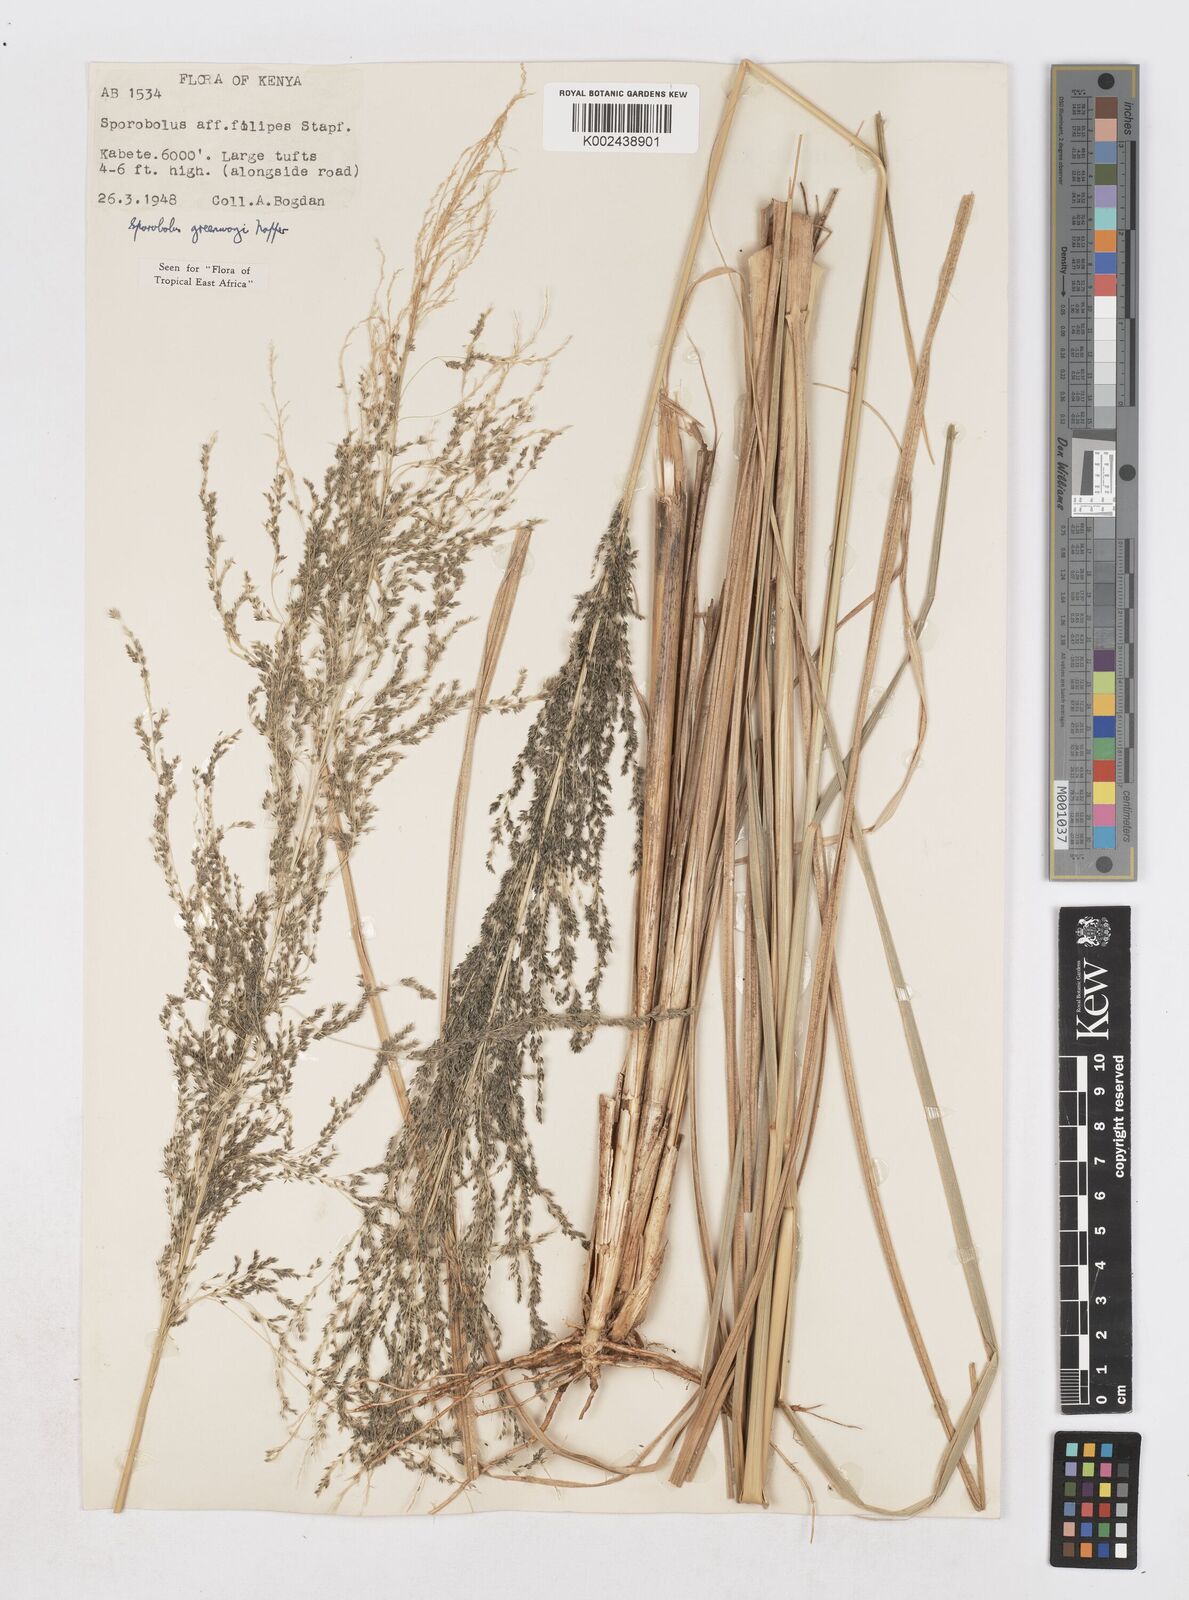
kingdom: Plantae
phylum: Tracheophyta
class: Liliopsida
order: Poales
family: Poaceae
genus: Sporobolus
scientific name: Sporobolus macranthelus
